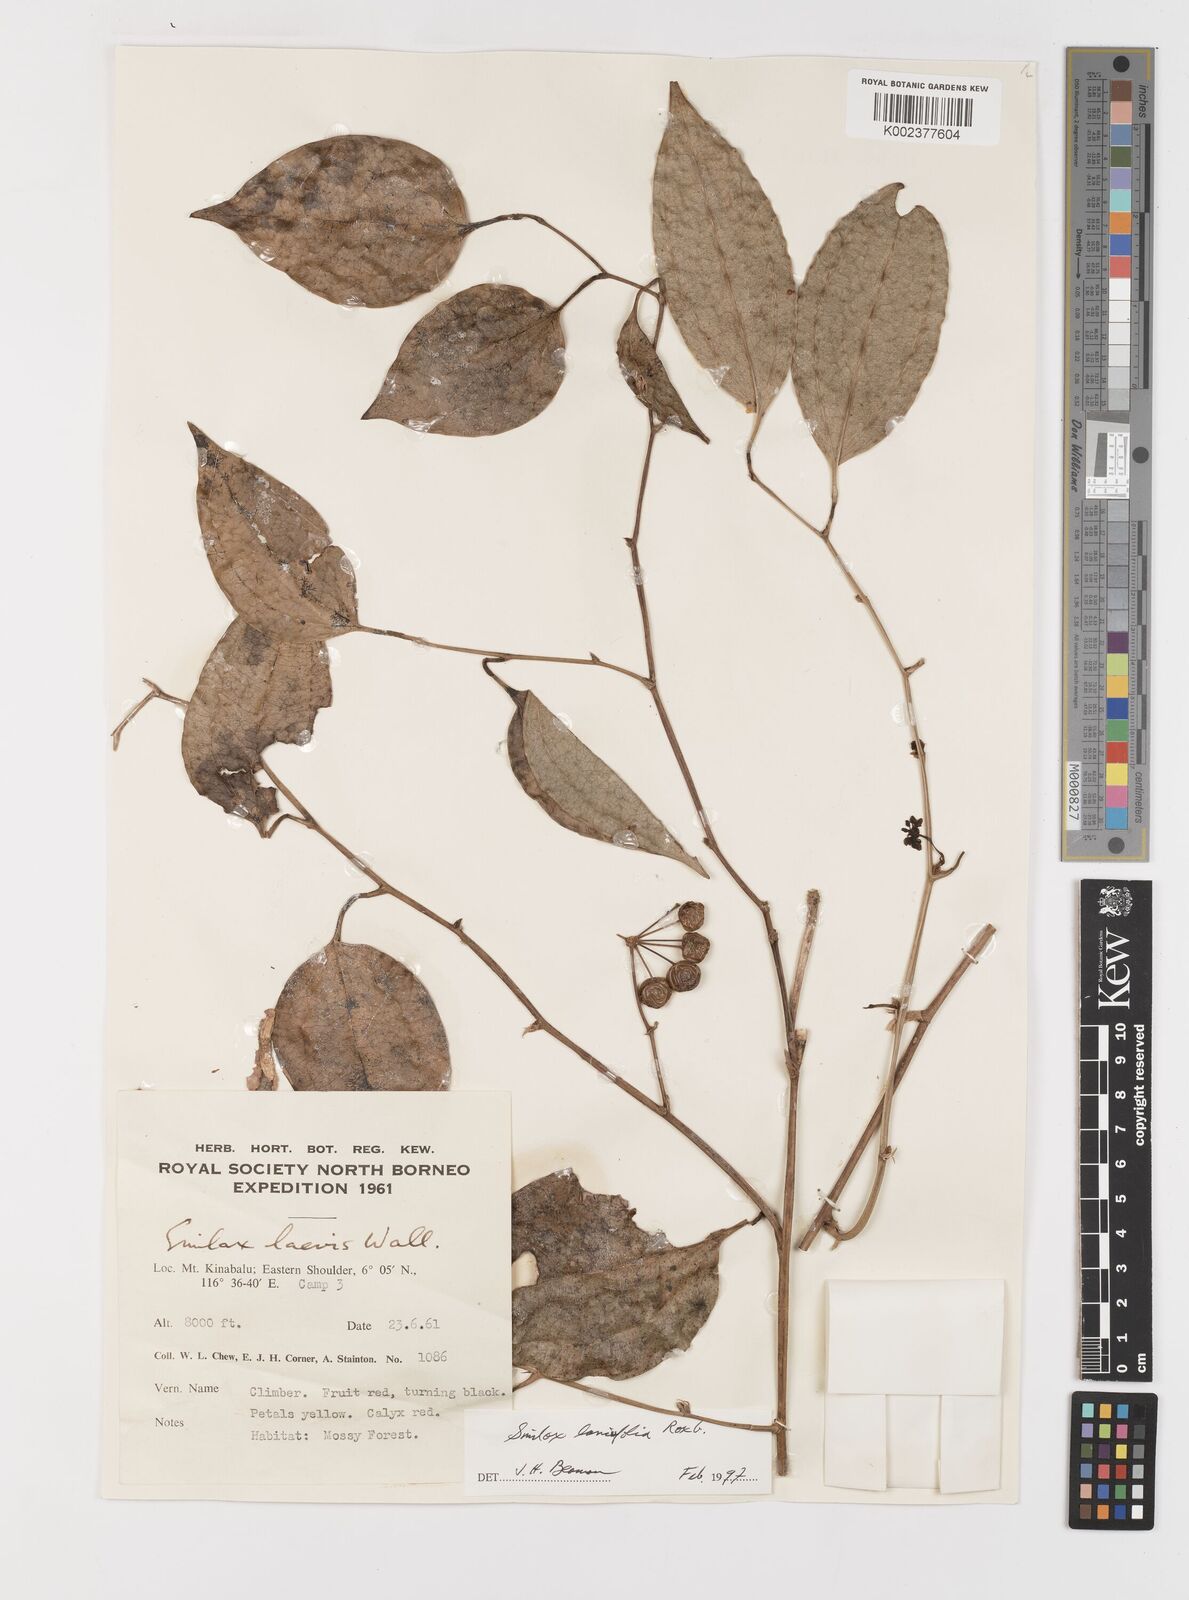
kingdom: Plantae
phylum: Tracheophyta
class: Liliopsida
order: Liliales
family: Smilacaceae
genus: Smilax
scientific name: Smilax lanceifolia
